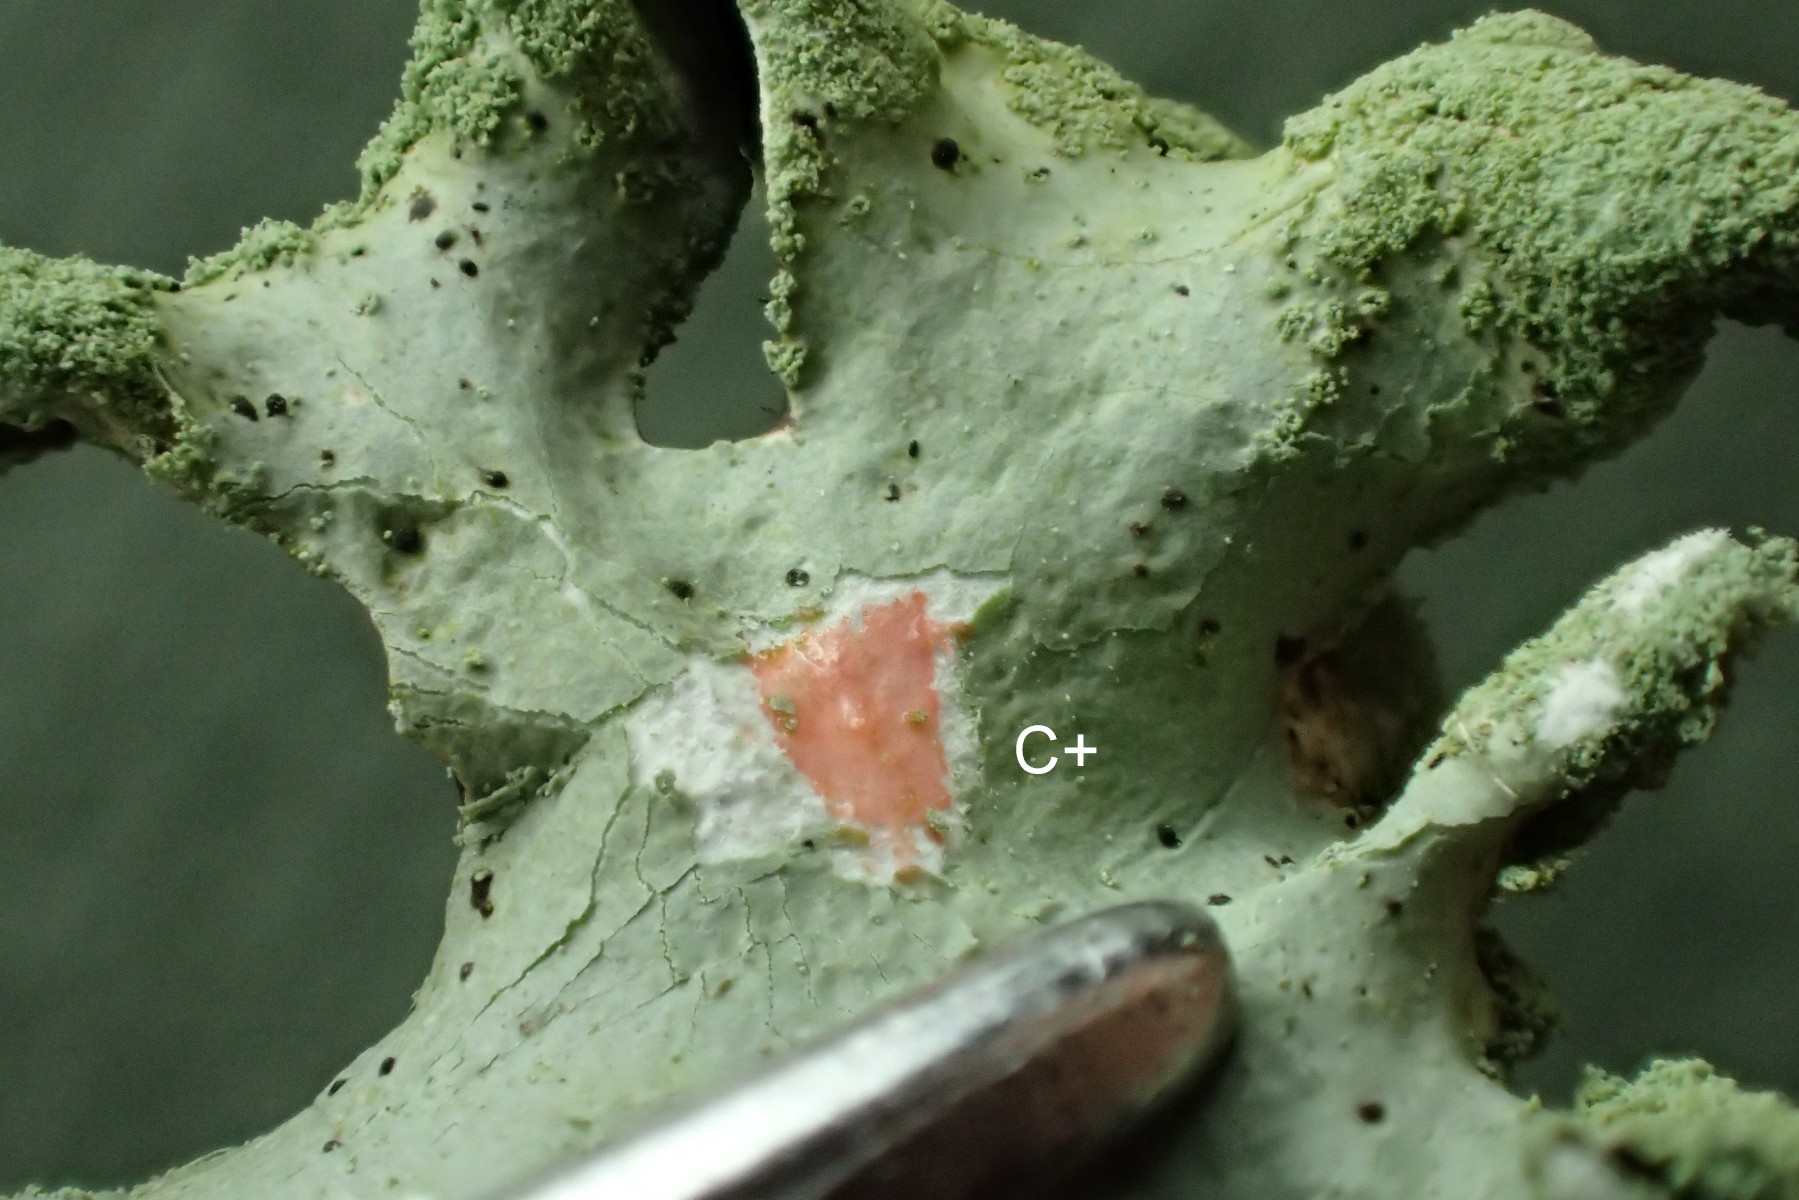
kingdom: Fungi
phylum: Ascomycota
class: Lecanoromycetes
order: Lecanorales
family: Parmeliaceae
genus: Hypotrachyna
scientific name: Hypotrachyna revoluta
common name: bleggrå skållav
